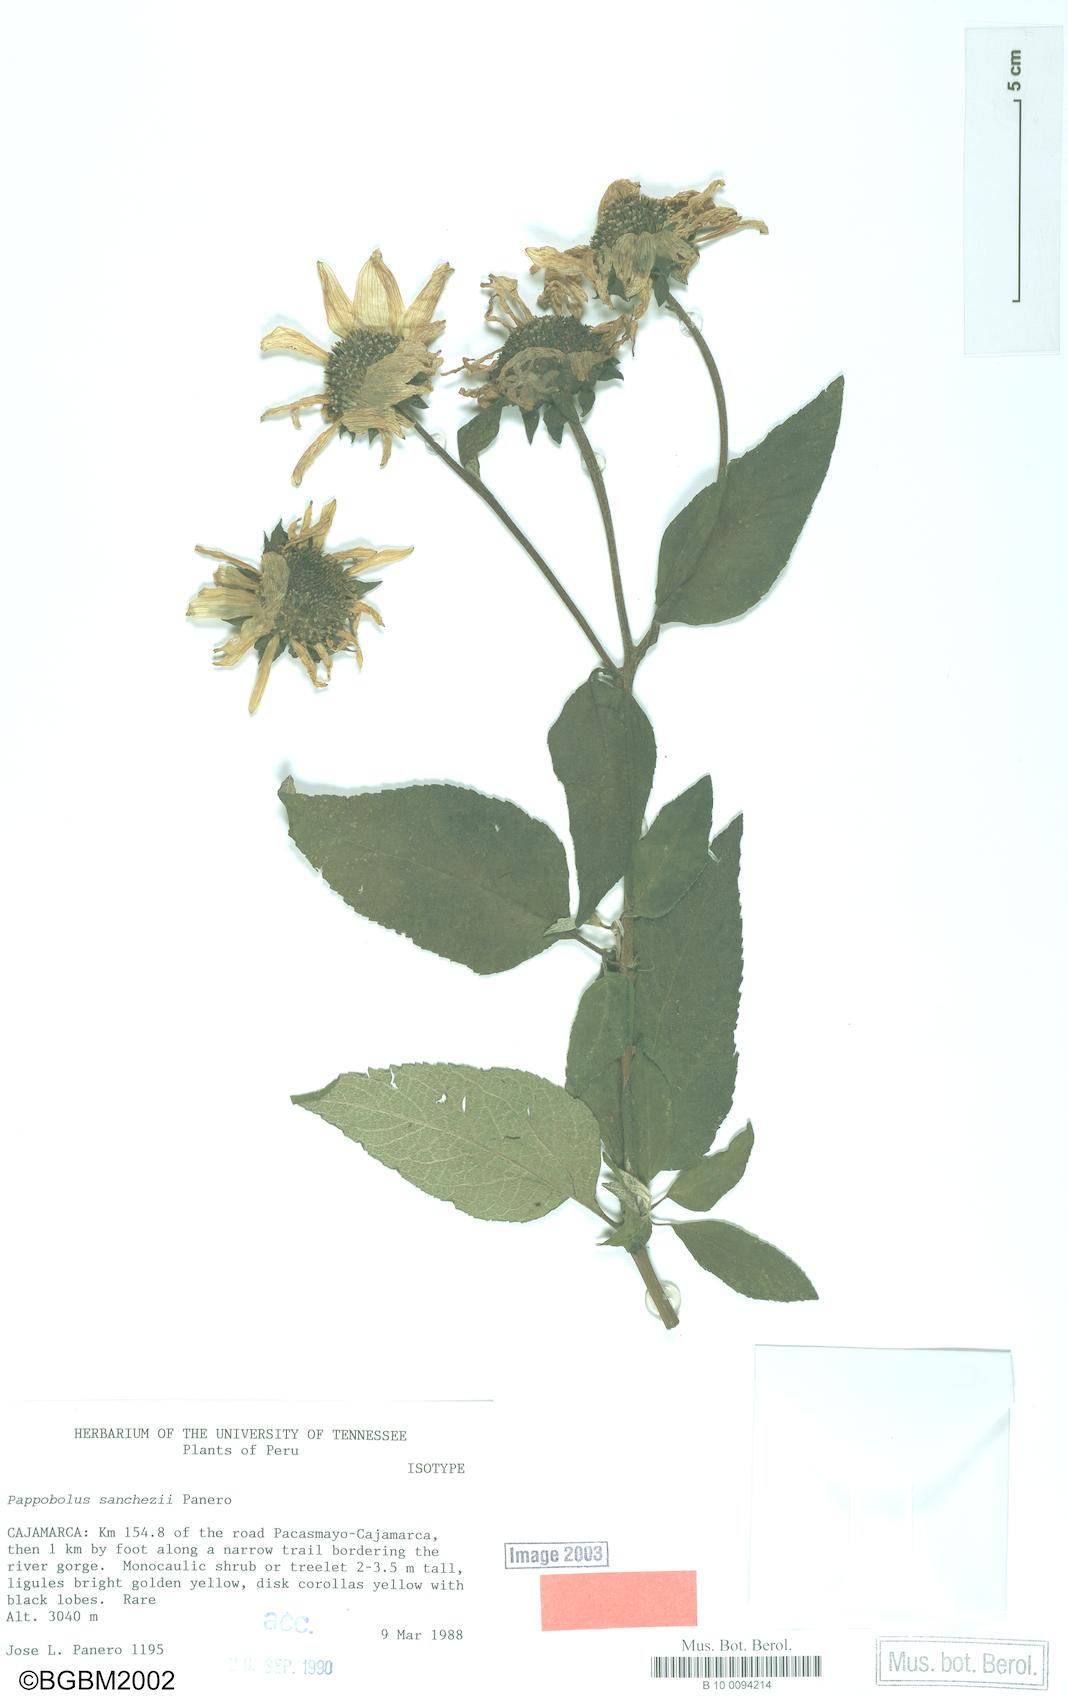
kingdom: Plantae
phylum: Tracheophyta
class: Magnoliopsida
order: Asterales
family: Asteraceae
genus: Pappobolus
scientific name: Pappobolus sanchezii
